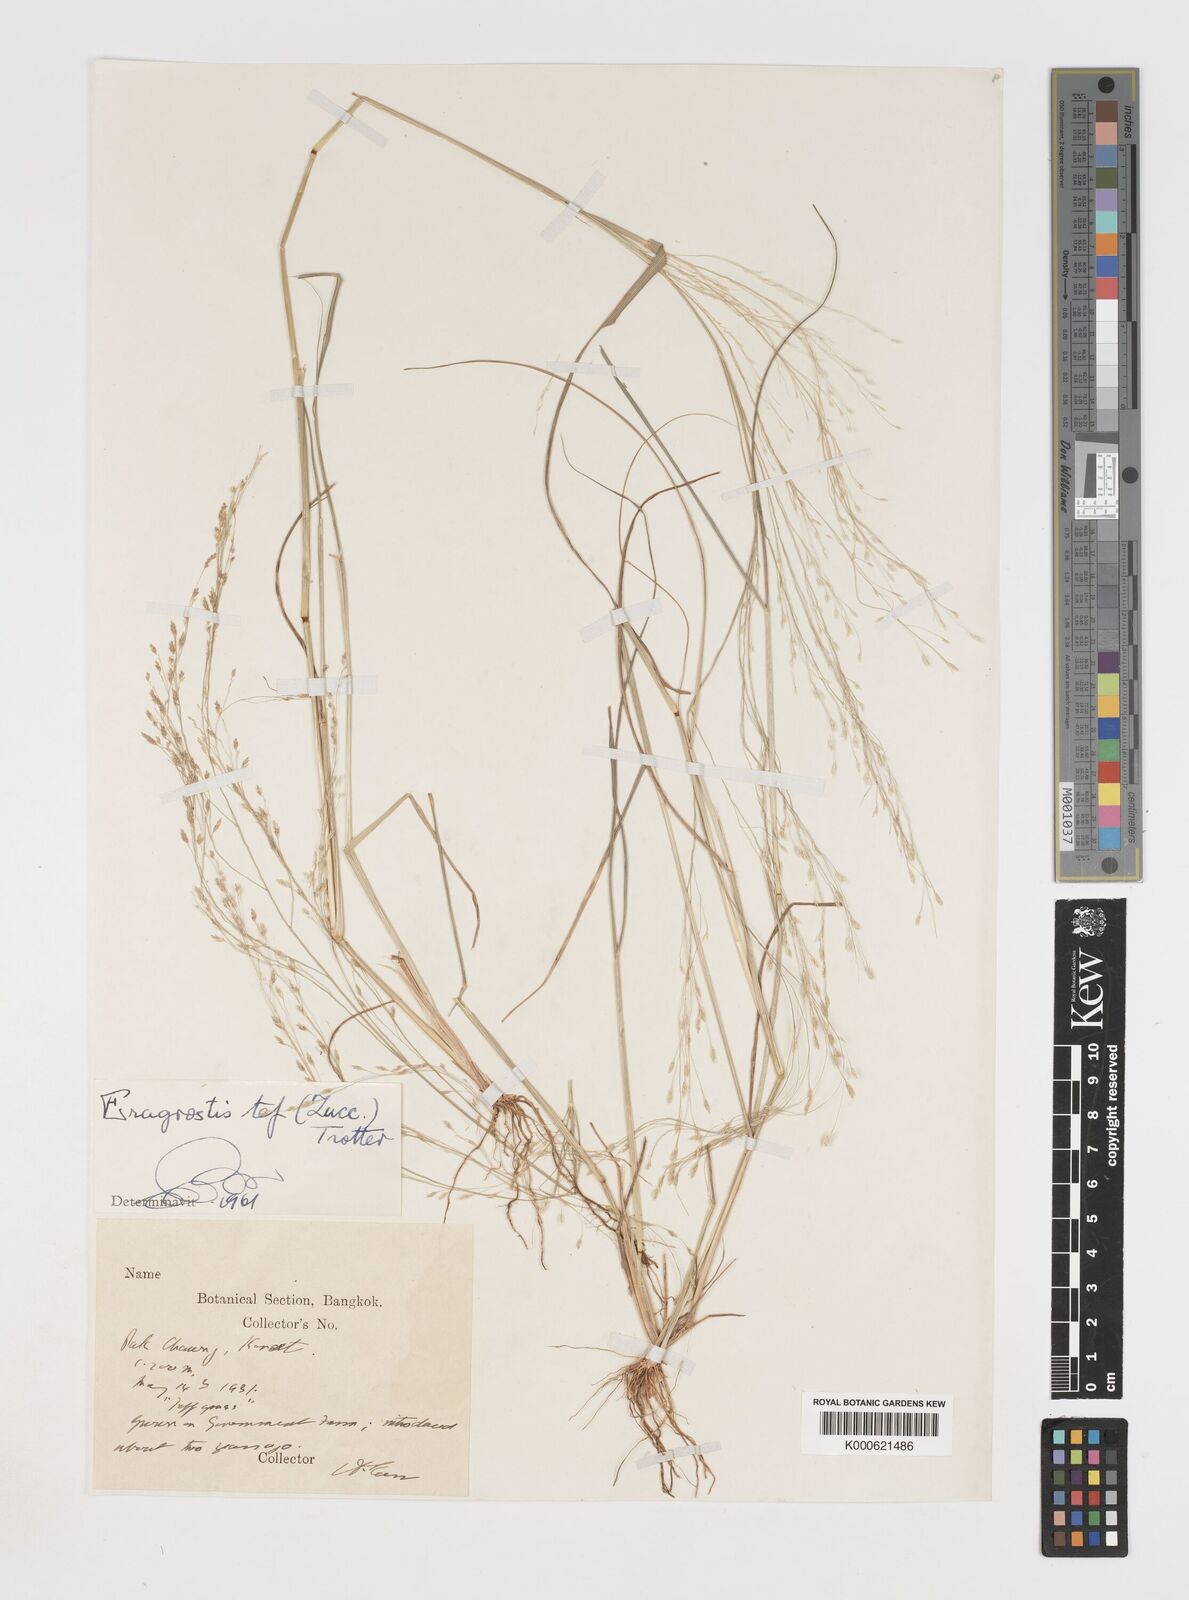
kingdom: Plantae
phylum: Tracheophyta
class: Liliopsida
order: Poales
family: Poaceae
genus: Eragrostis
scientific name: Eragrostis tenella
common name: Japanese lovegrass
